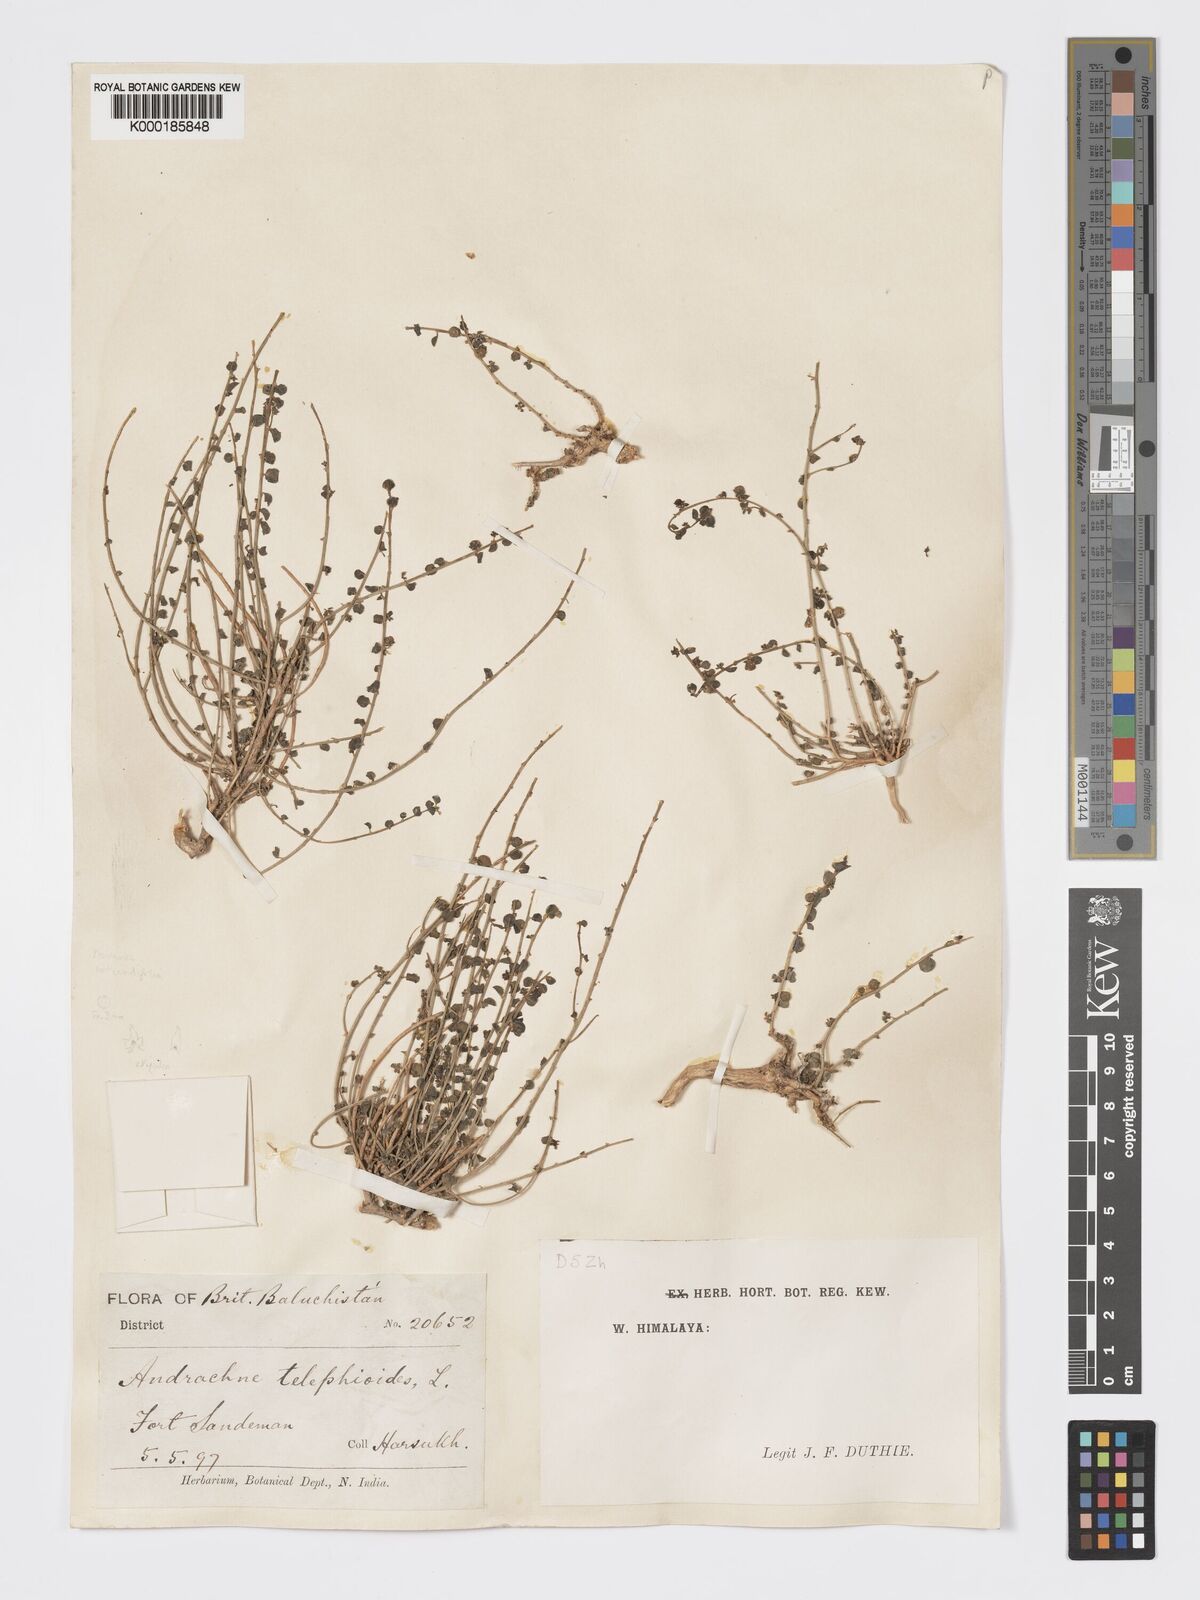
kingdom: Plantae
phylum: Tracheophyta
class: Magnoliopsida
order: Malpighiales
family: Phyllanthaceae
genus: Andrachne
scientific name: Andrachne telephioides
